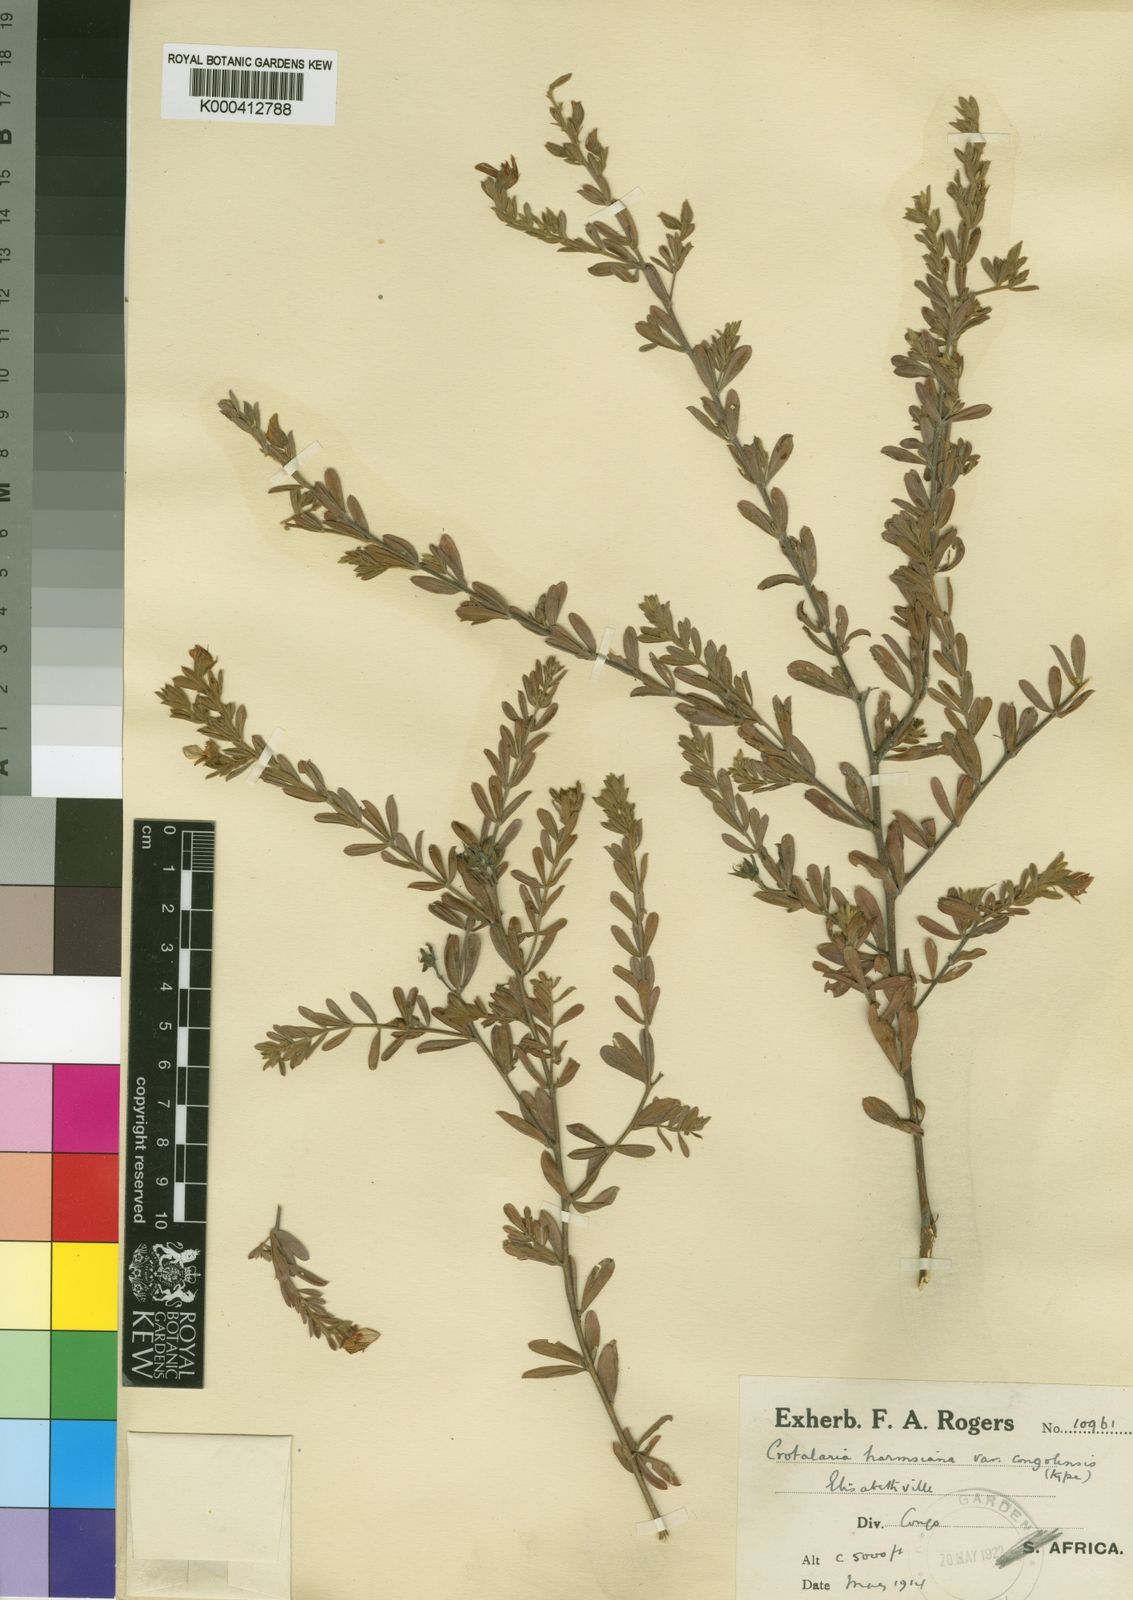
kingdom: Plantae
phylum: Tracheophyta
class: Magnoliopsida
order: Fabales
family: Fabaceae
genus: Crotalaria
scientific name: Crotalaria caudata
